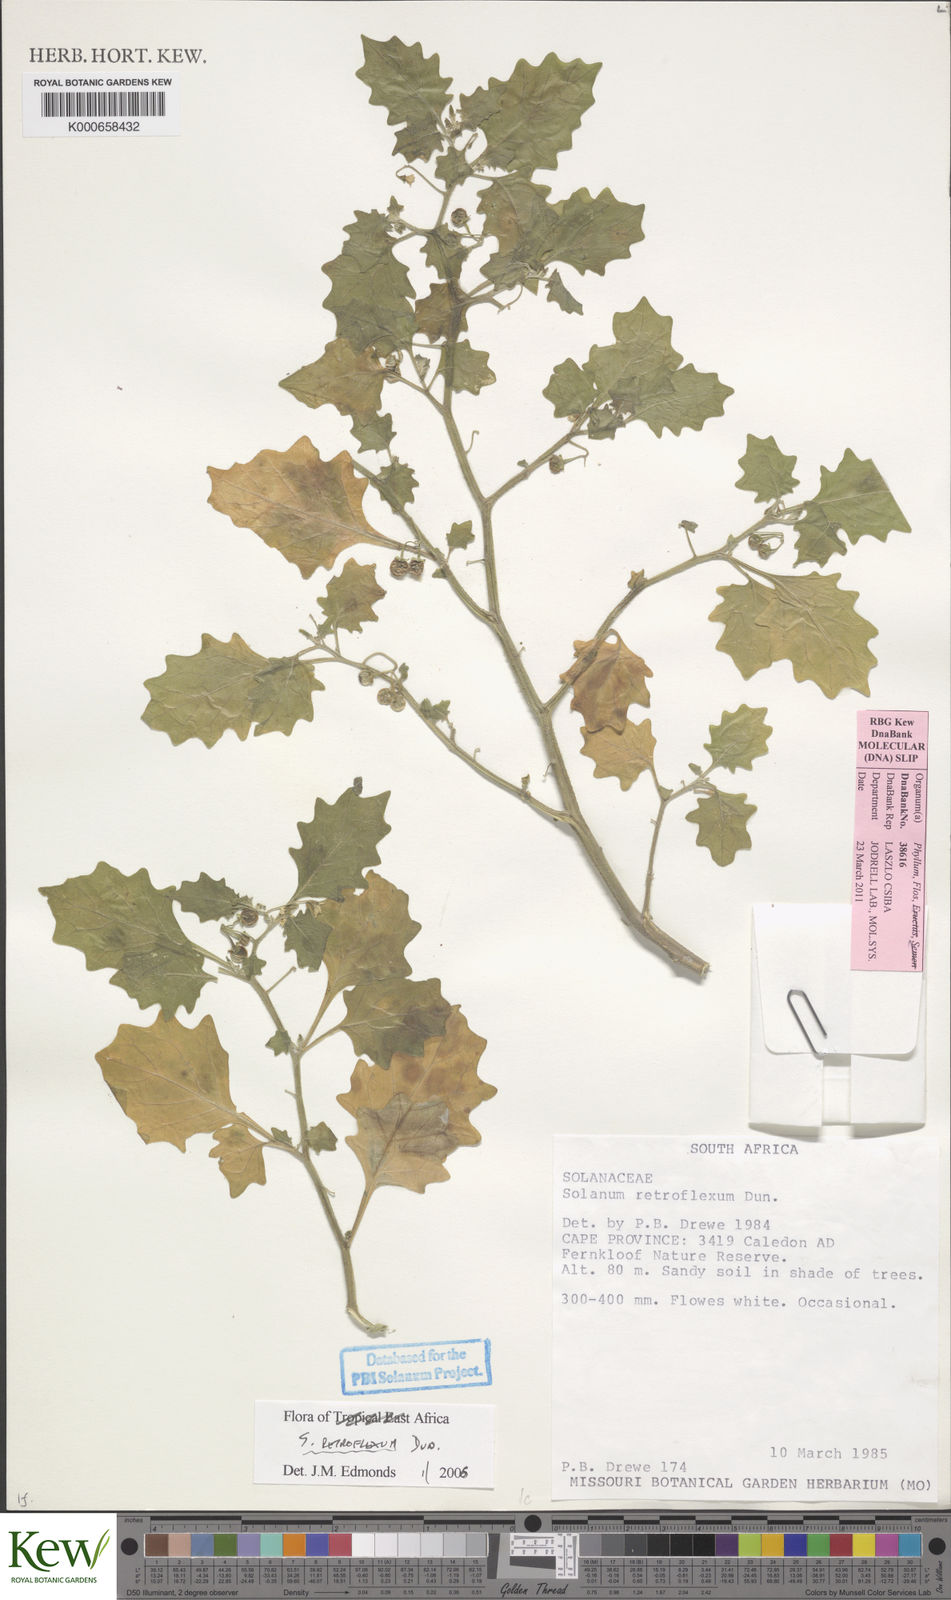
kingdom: Plantae
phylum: Tracheophyta
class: Magnoliopsida
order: Solanales
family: Solanaceae
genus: Solanum
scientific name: Solanum retroflexum
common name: Wonderberry
